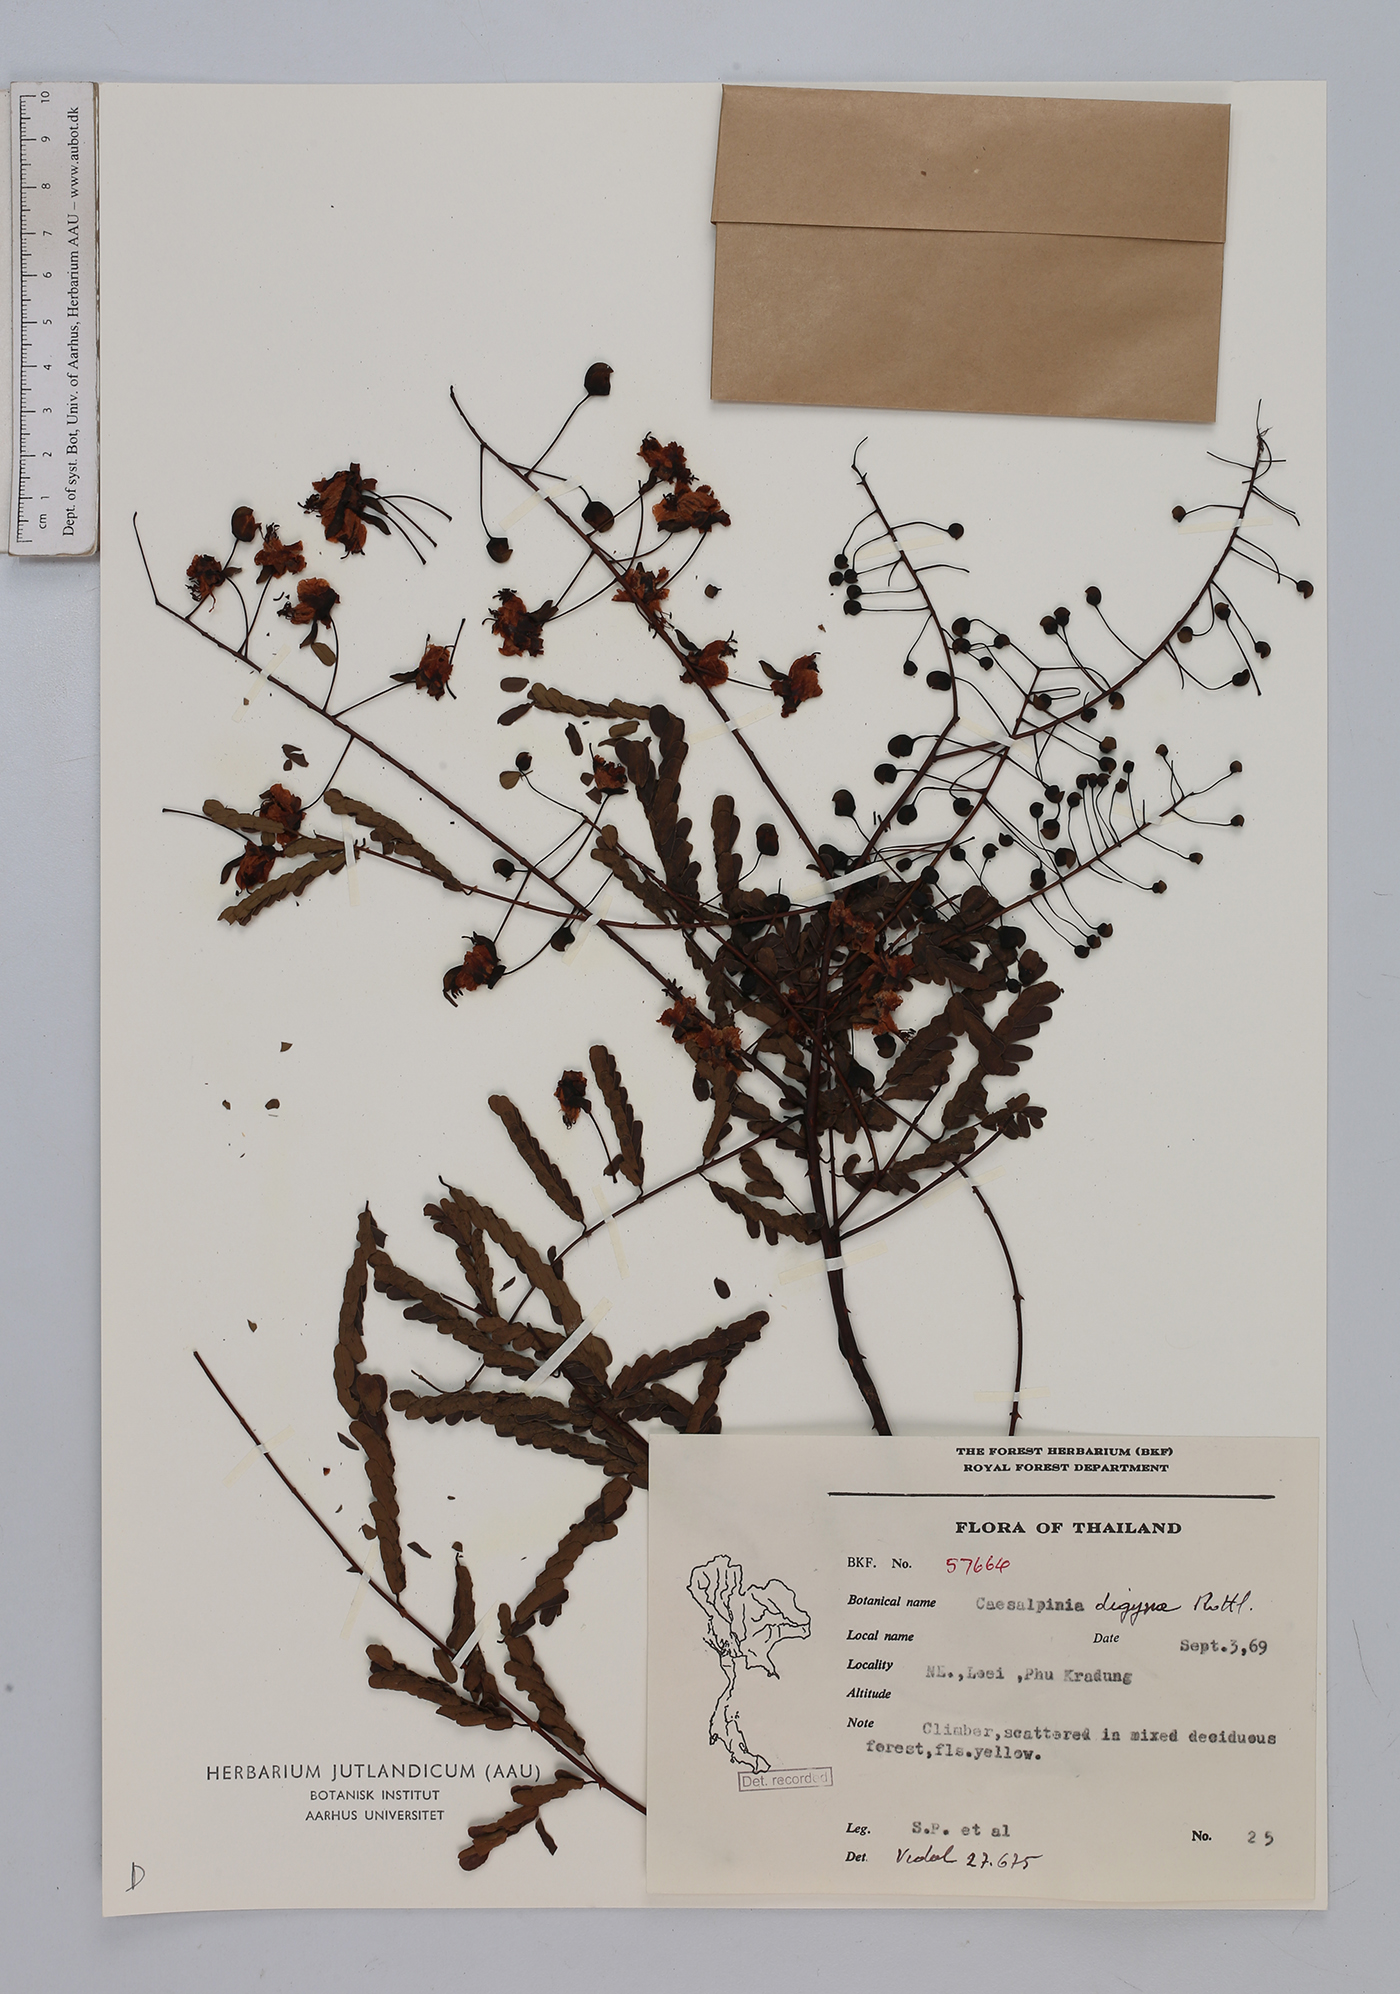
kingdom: Plantae
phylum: Tracheophyta
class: Magnoliopsida
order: Fabales
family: Fabaceae
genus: Moullava
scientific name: Moullava digyna
